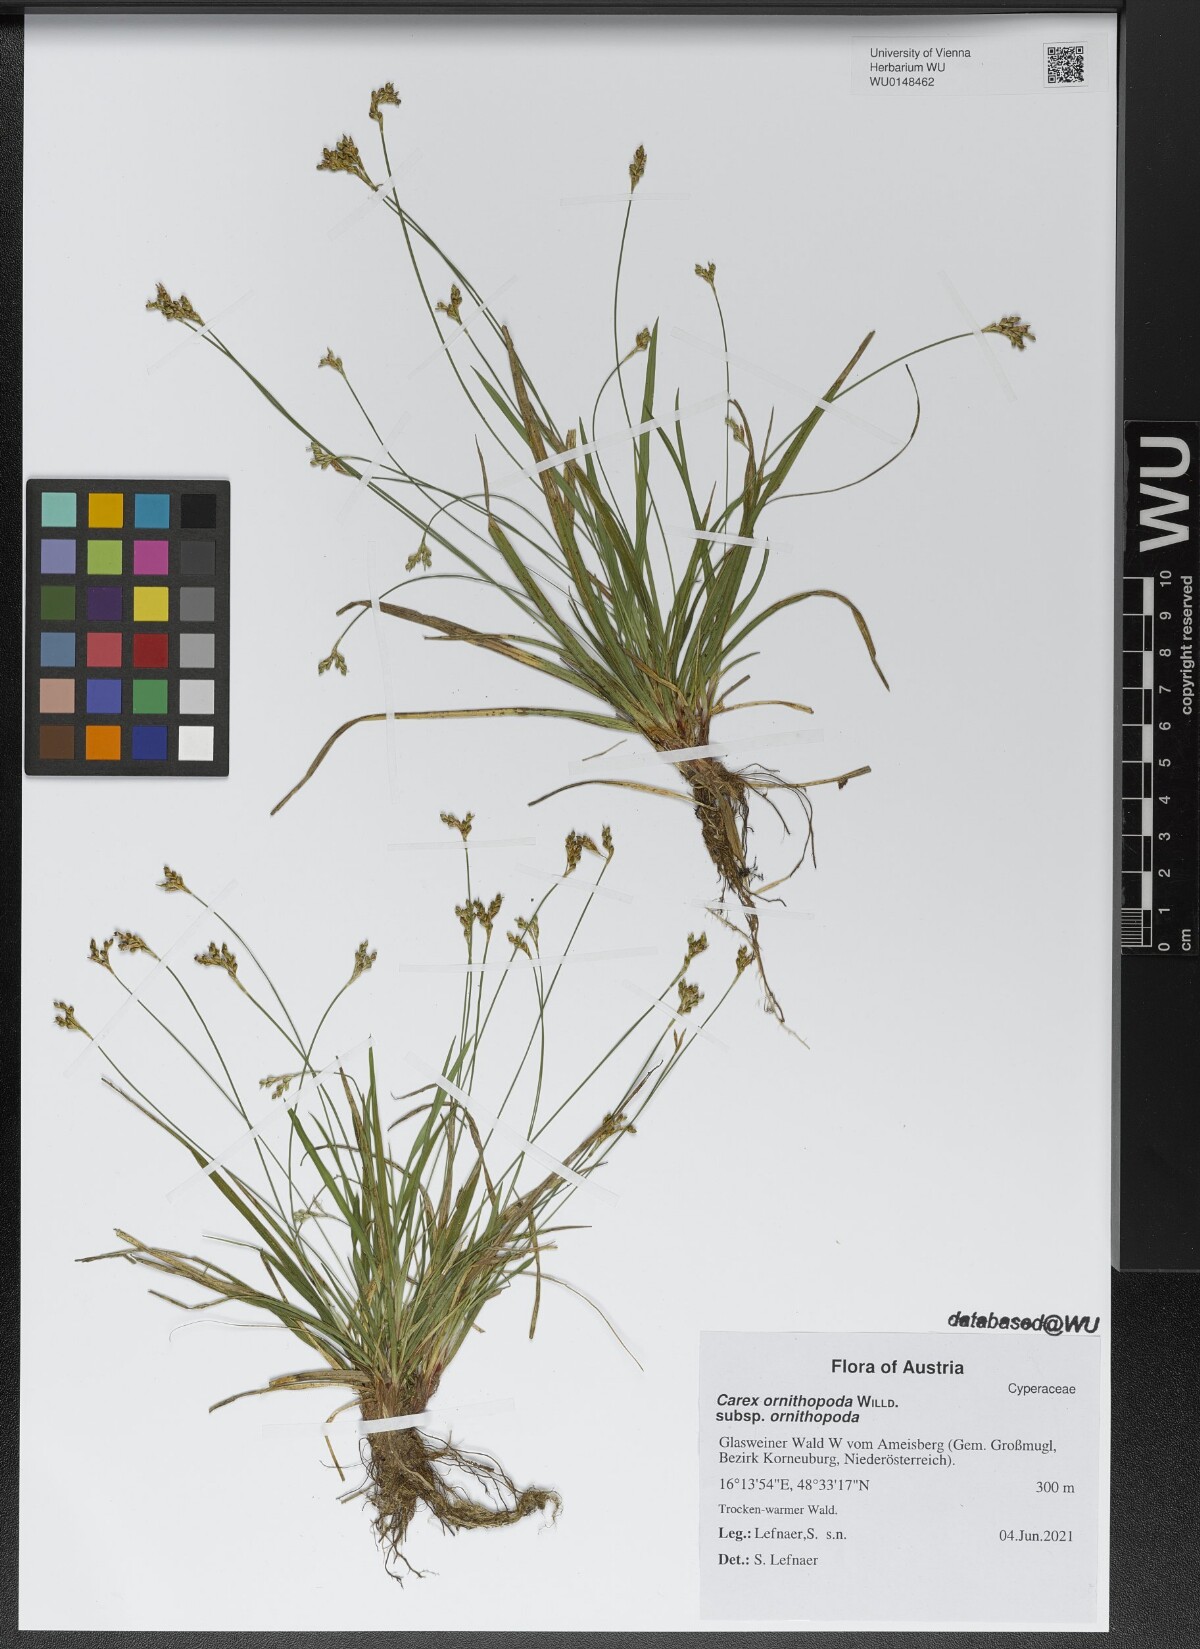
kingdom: Plantae
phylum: Tracheophyta
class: Liliopsida
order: Poales
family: Cyperaceae
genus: Carex
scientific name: Carex ornithopoda
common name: Bird's-foot sedge
